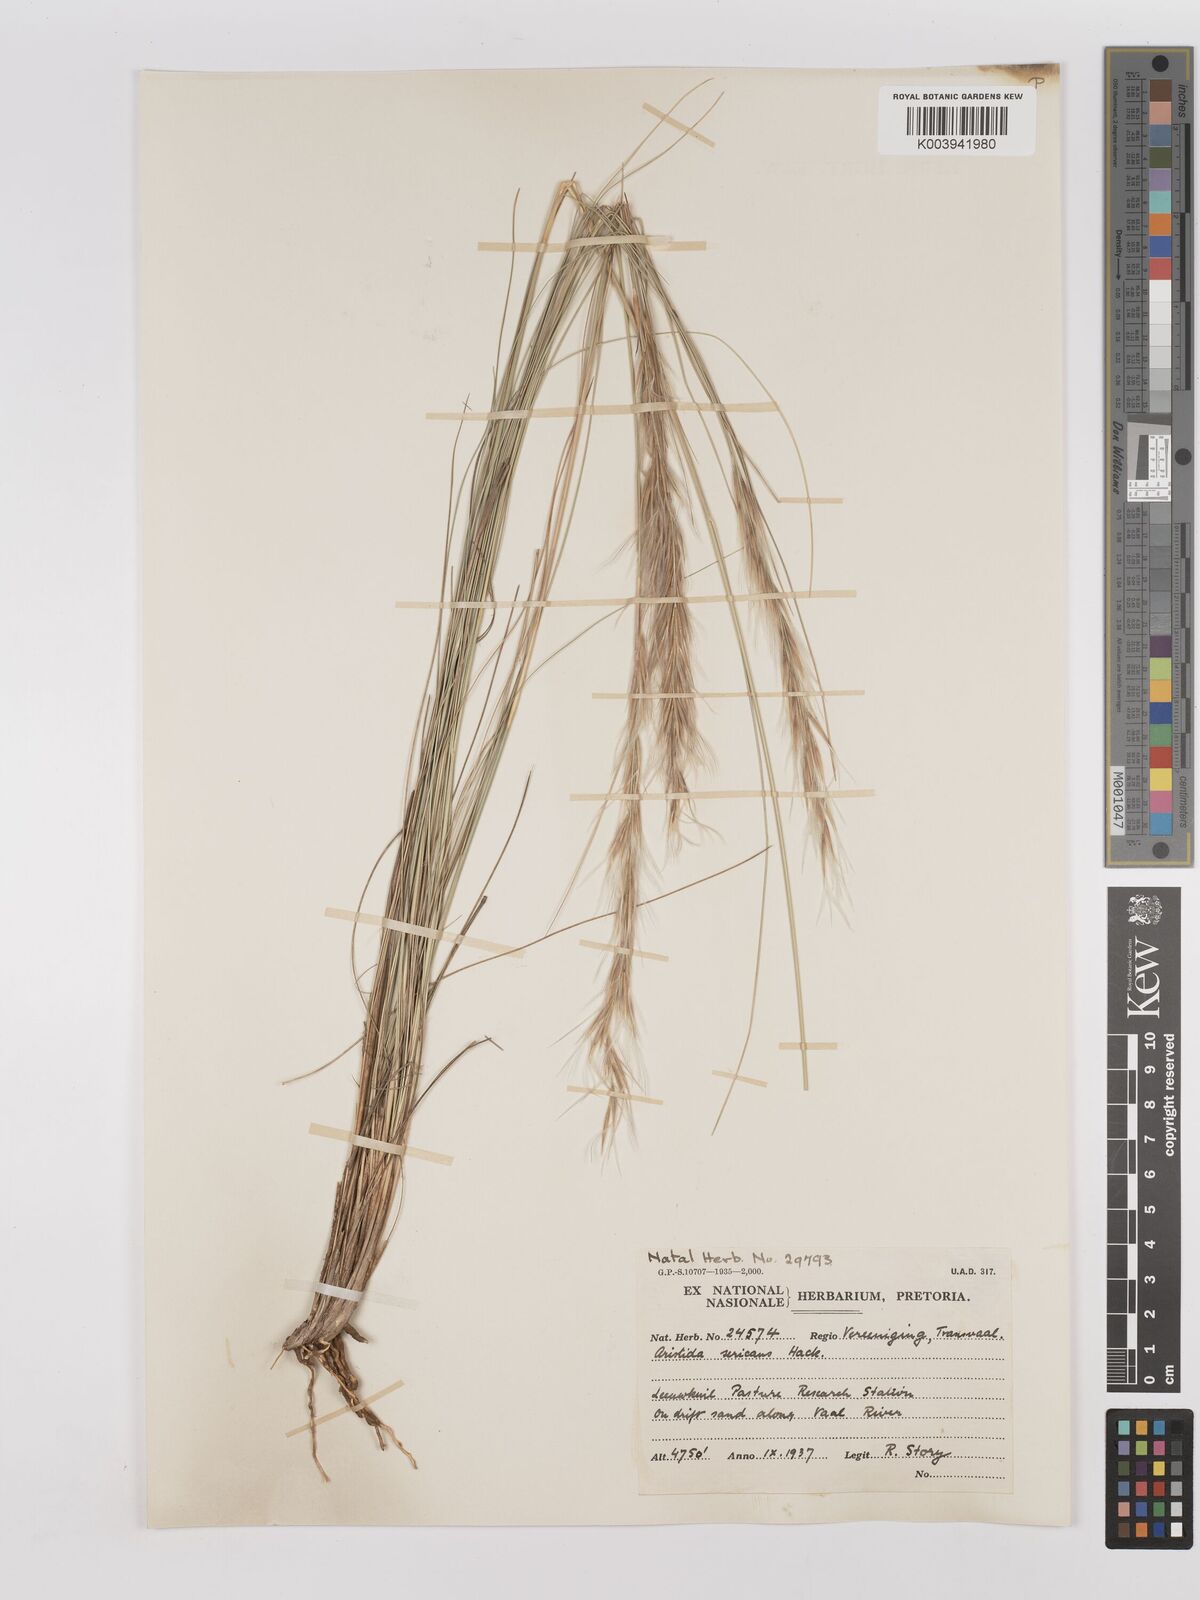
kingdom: Plantae
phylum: Tracheophyta
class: Liliopsida
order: Poales
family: Poaceae
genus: Stipagrostis
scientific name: Stipagrostis zeyheri
